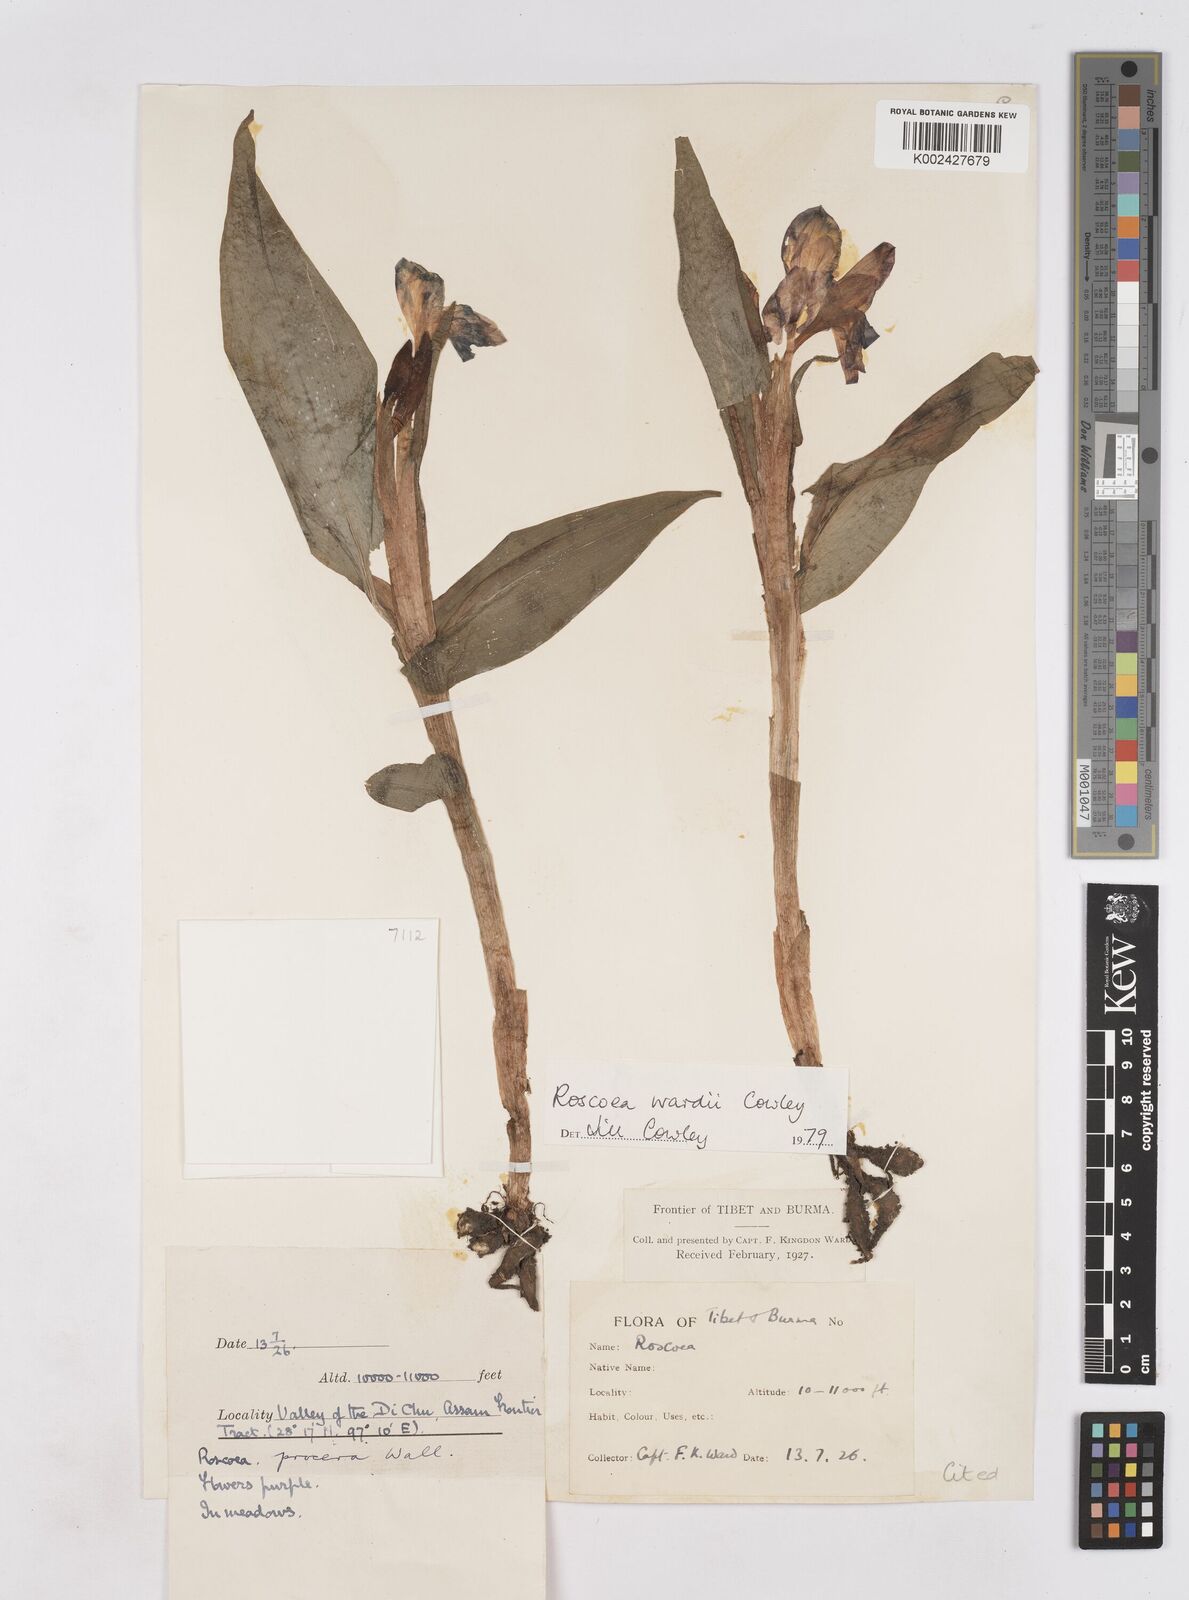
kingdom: Plantae
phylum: Tracheophyta
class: Liliopsida
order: Zingiberales
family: Zingiberaceae
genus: Roscoea
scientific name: Roscoea wardii
